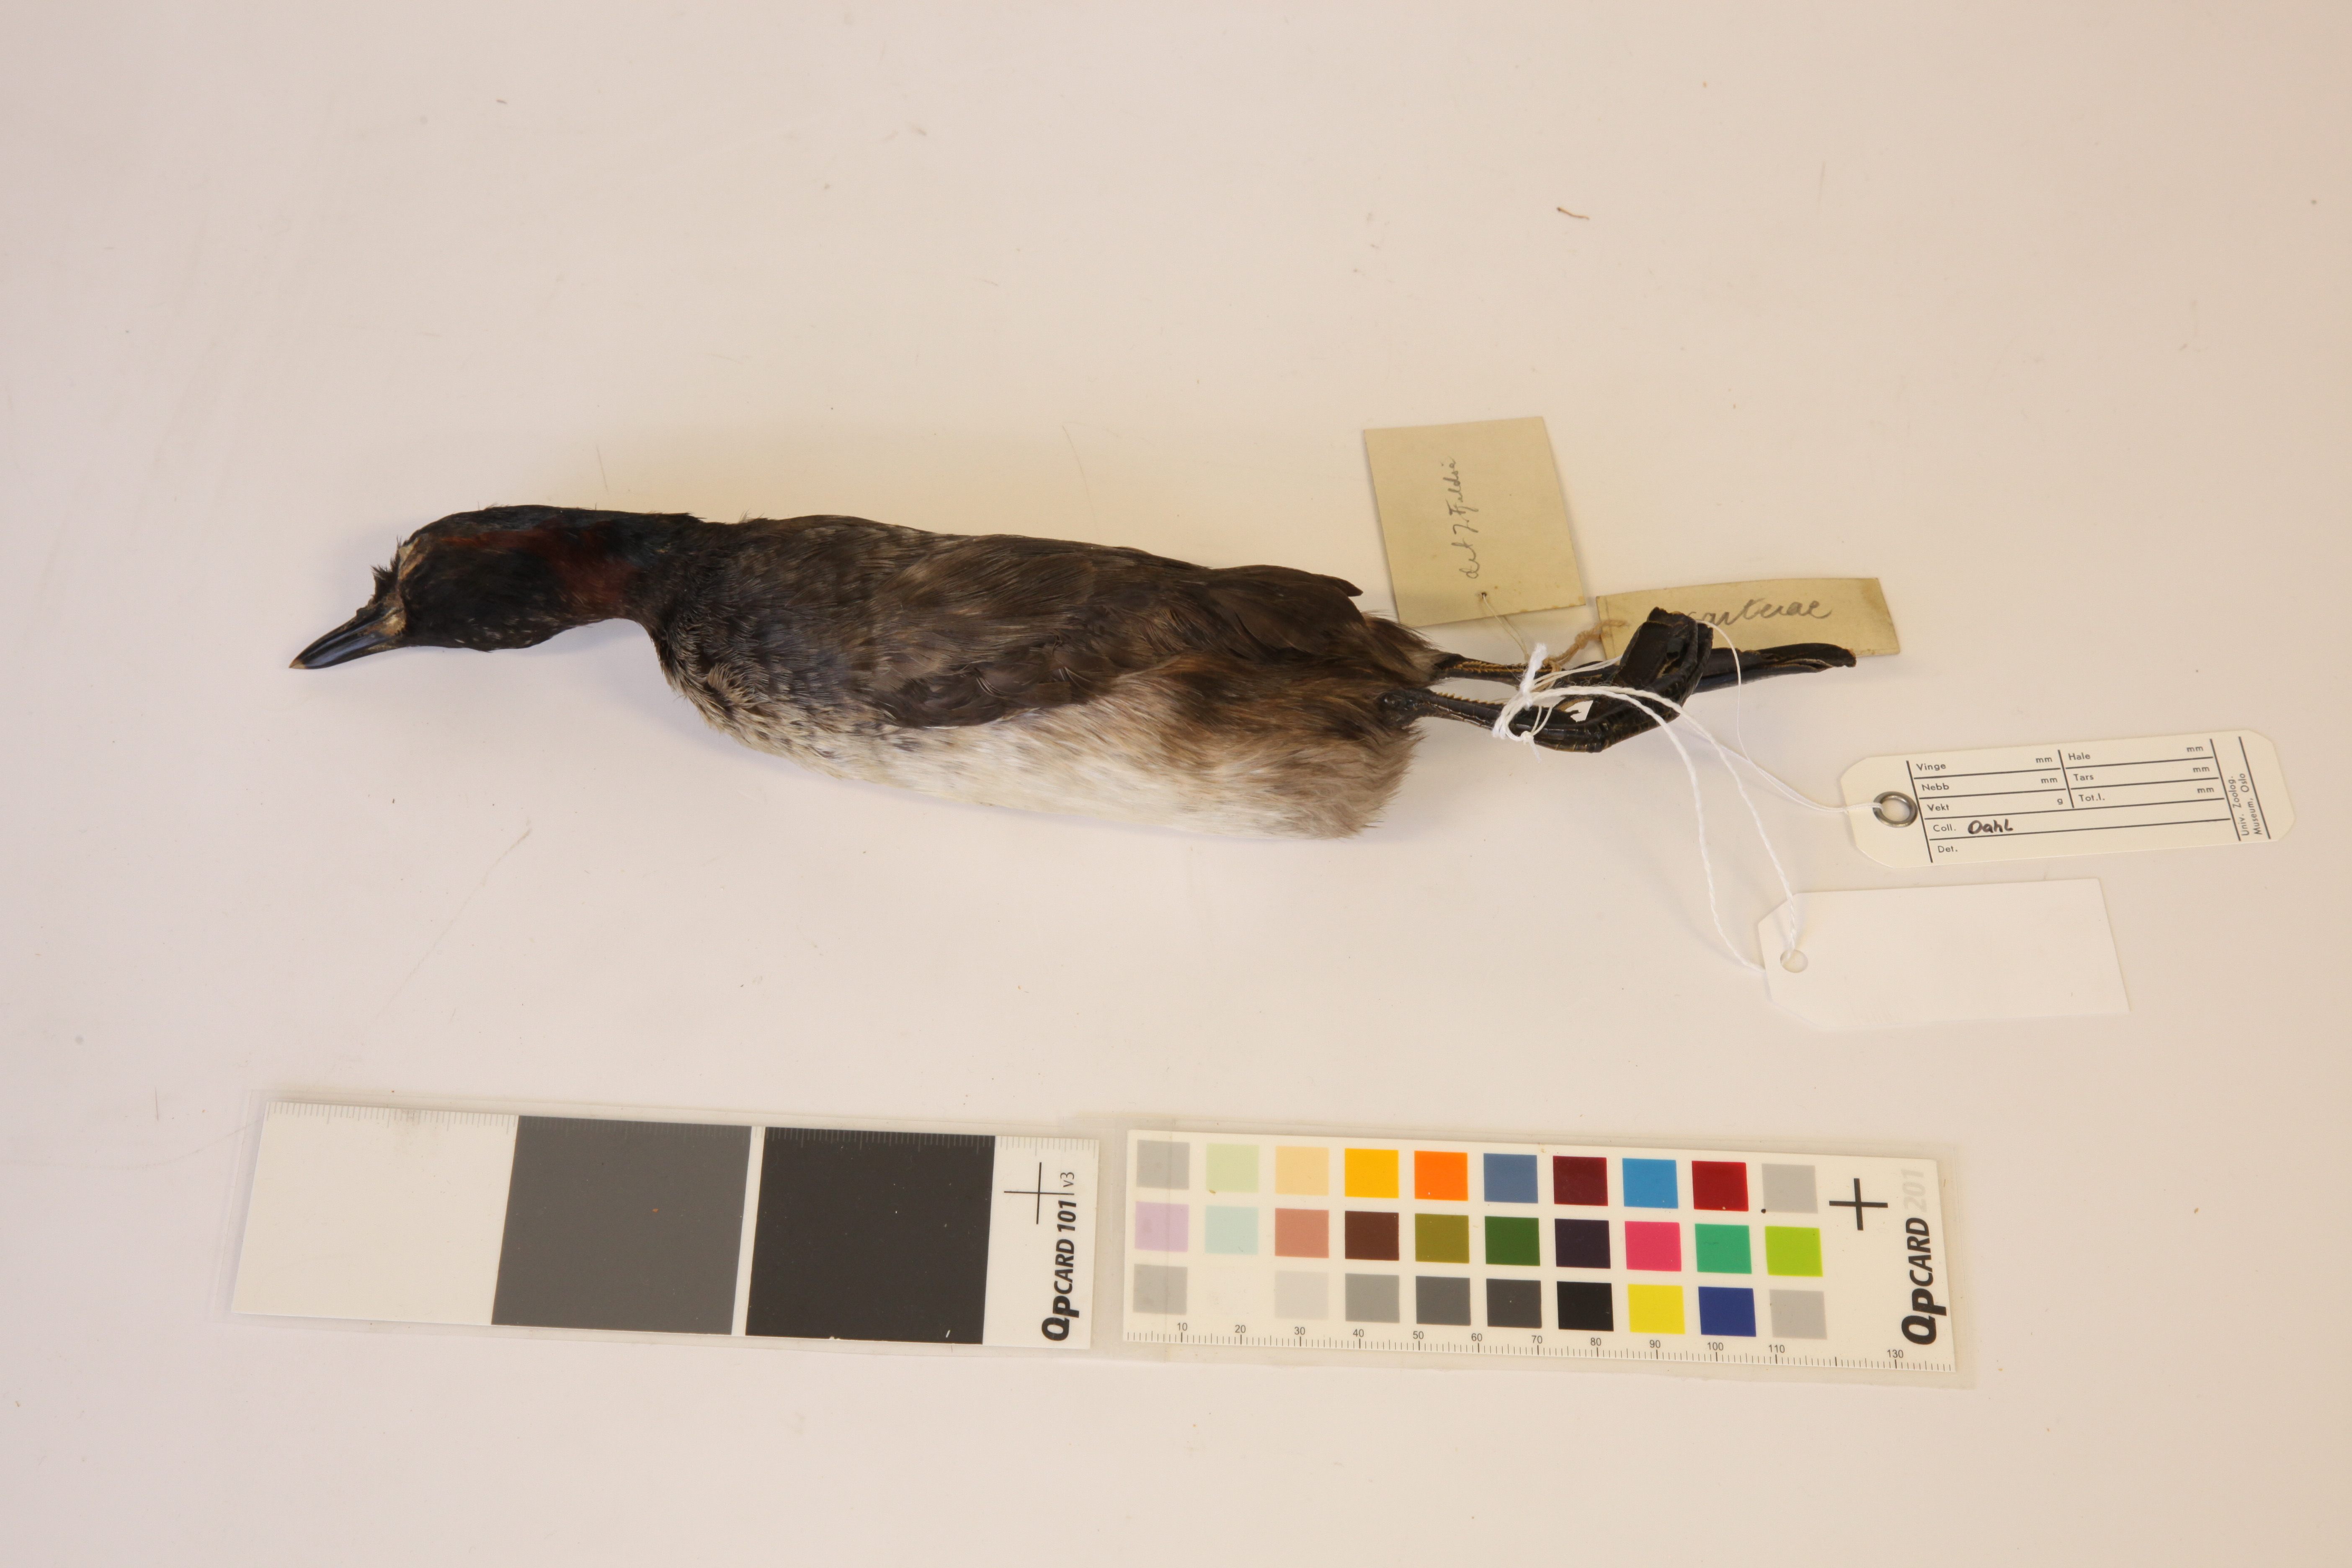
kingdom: Animalia
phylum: Chordata
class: Aves
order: Podicipediformes
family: Podicipedidae
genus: Tachybaptus
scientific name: Tachybaptus novaehollandiae
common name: Australasian grebe
